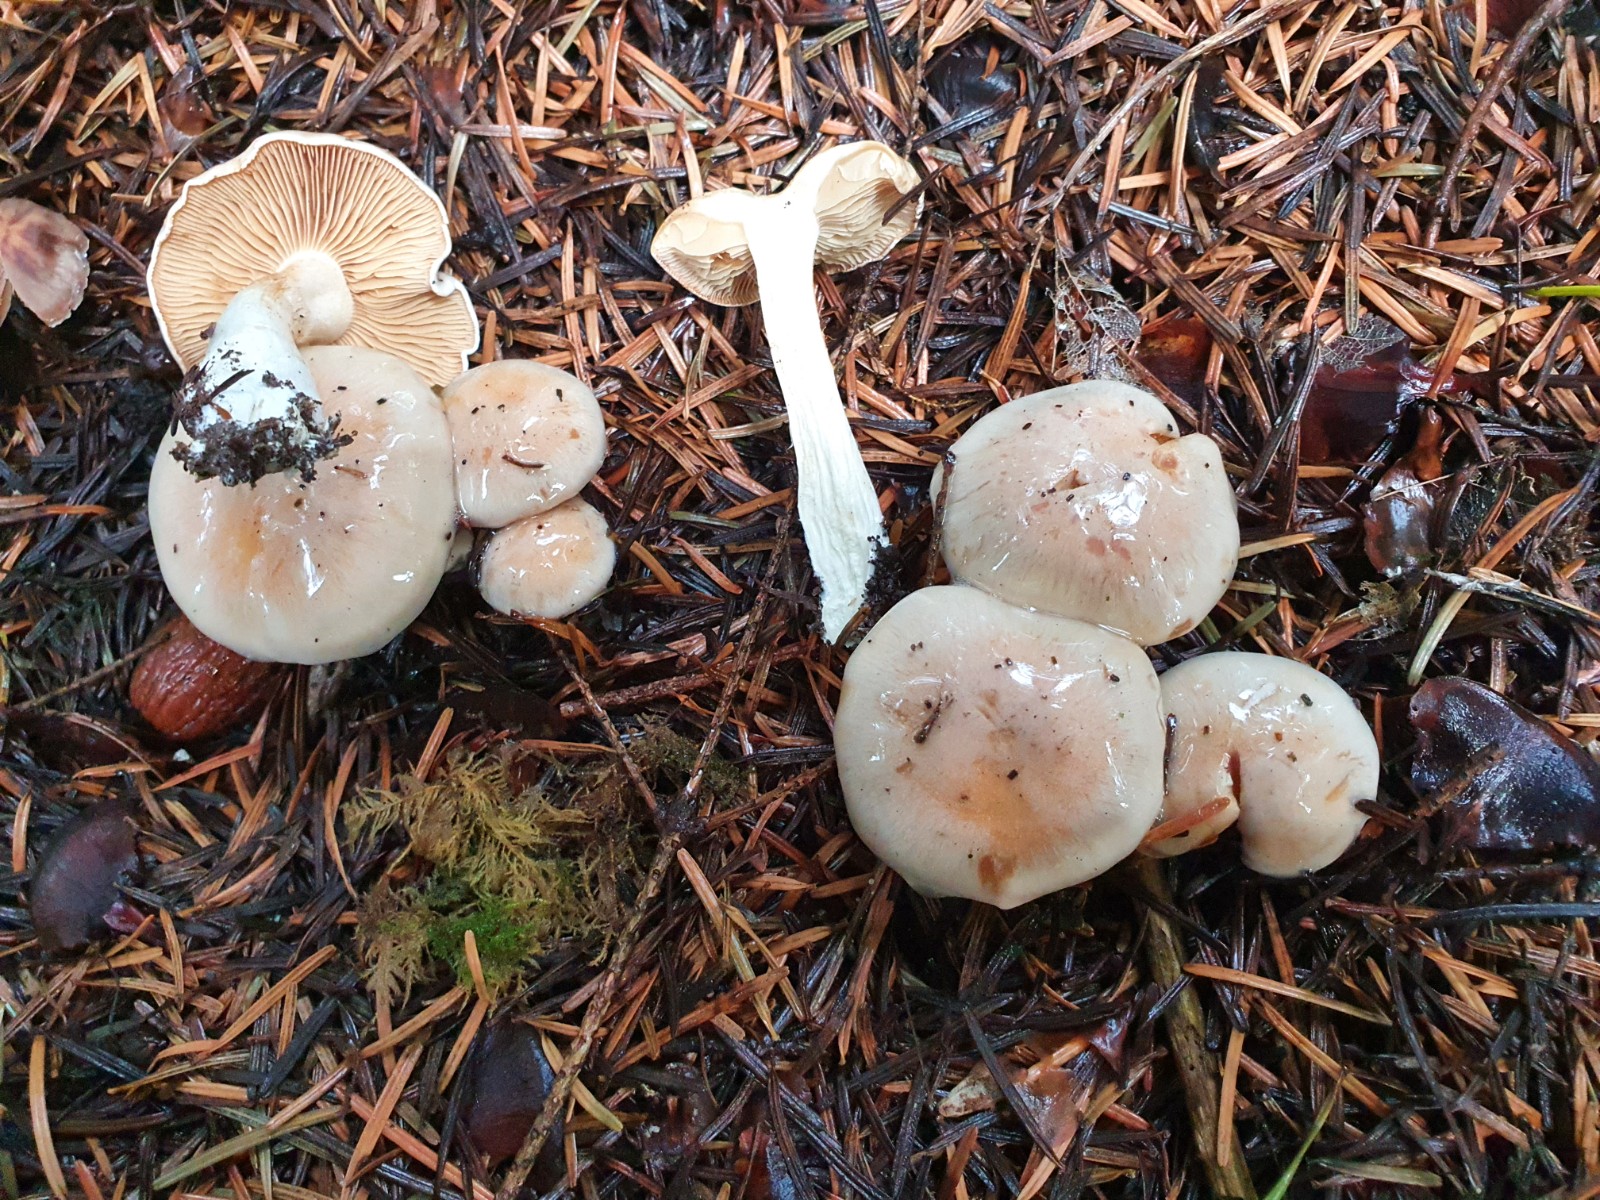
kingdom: Fungi
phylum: Basidiomycota
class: Agaricomycetes
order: Agaricales
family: Strophariaceae
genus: Pholiota
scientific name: Pholiota lenta
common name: løv-skælhat
